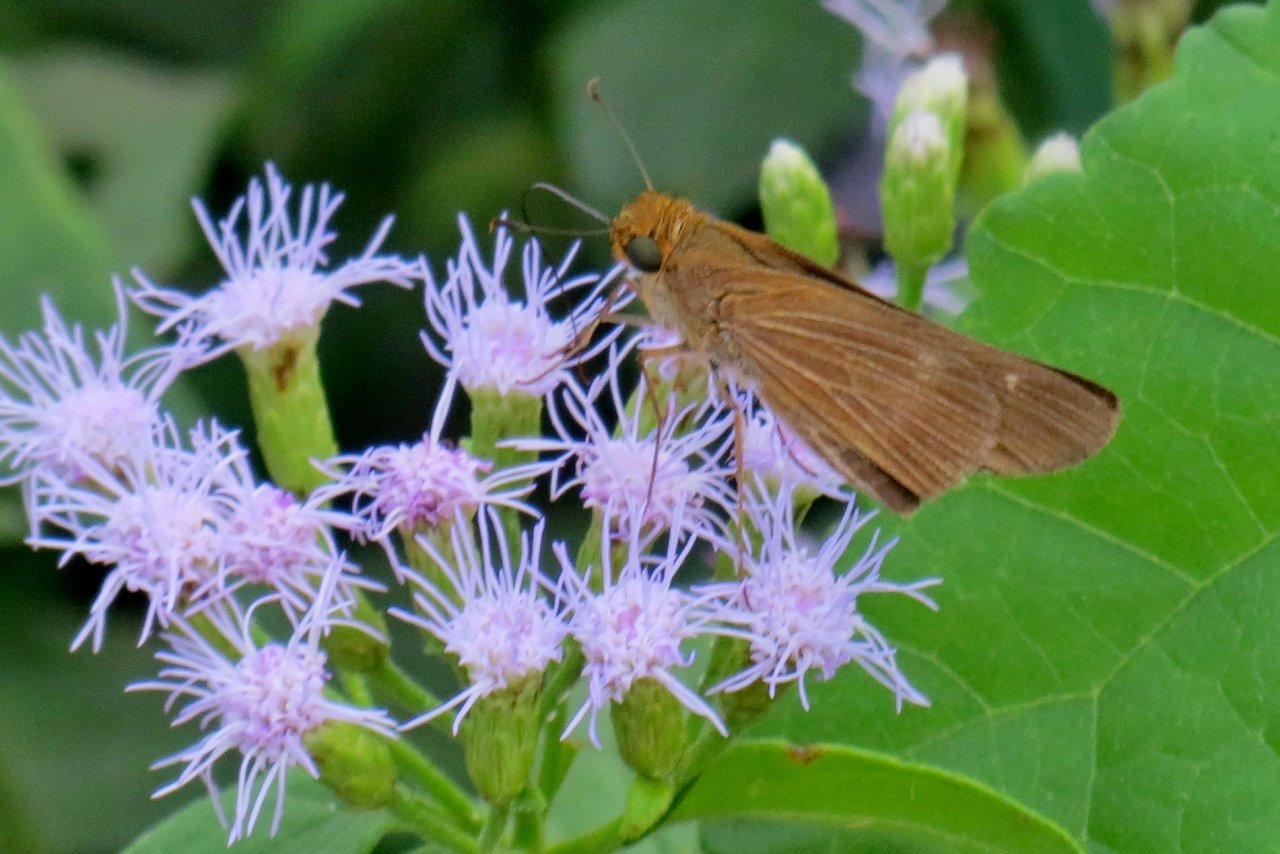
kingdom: Animalia
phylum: Arthropoda
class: Insecta
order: Lepidoptera
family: Hesperiidae
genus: Panoquina
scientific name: Panoquina ocola
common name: Ocola Skipper
